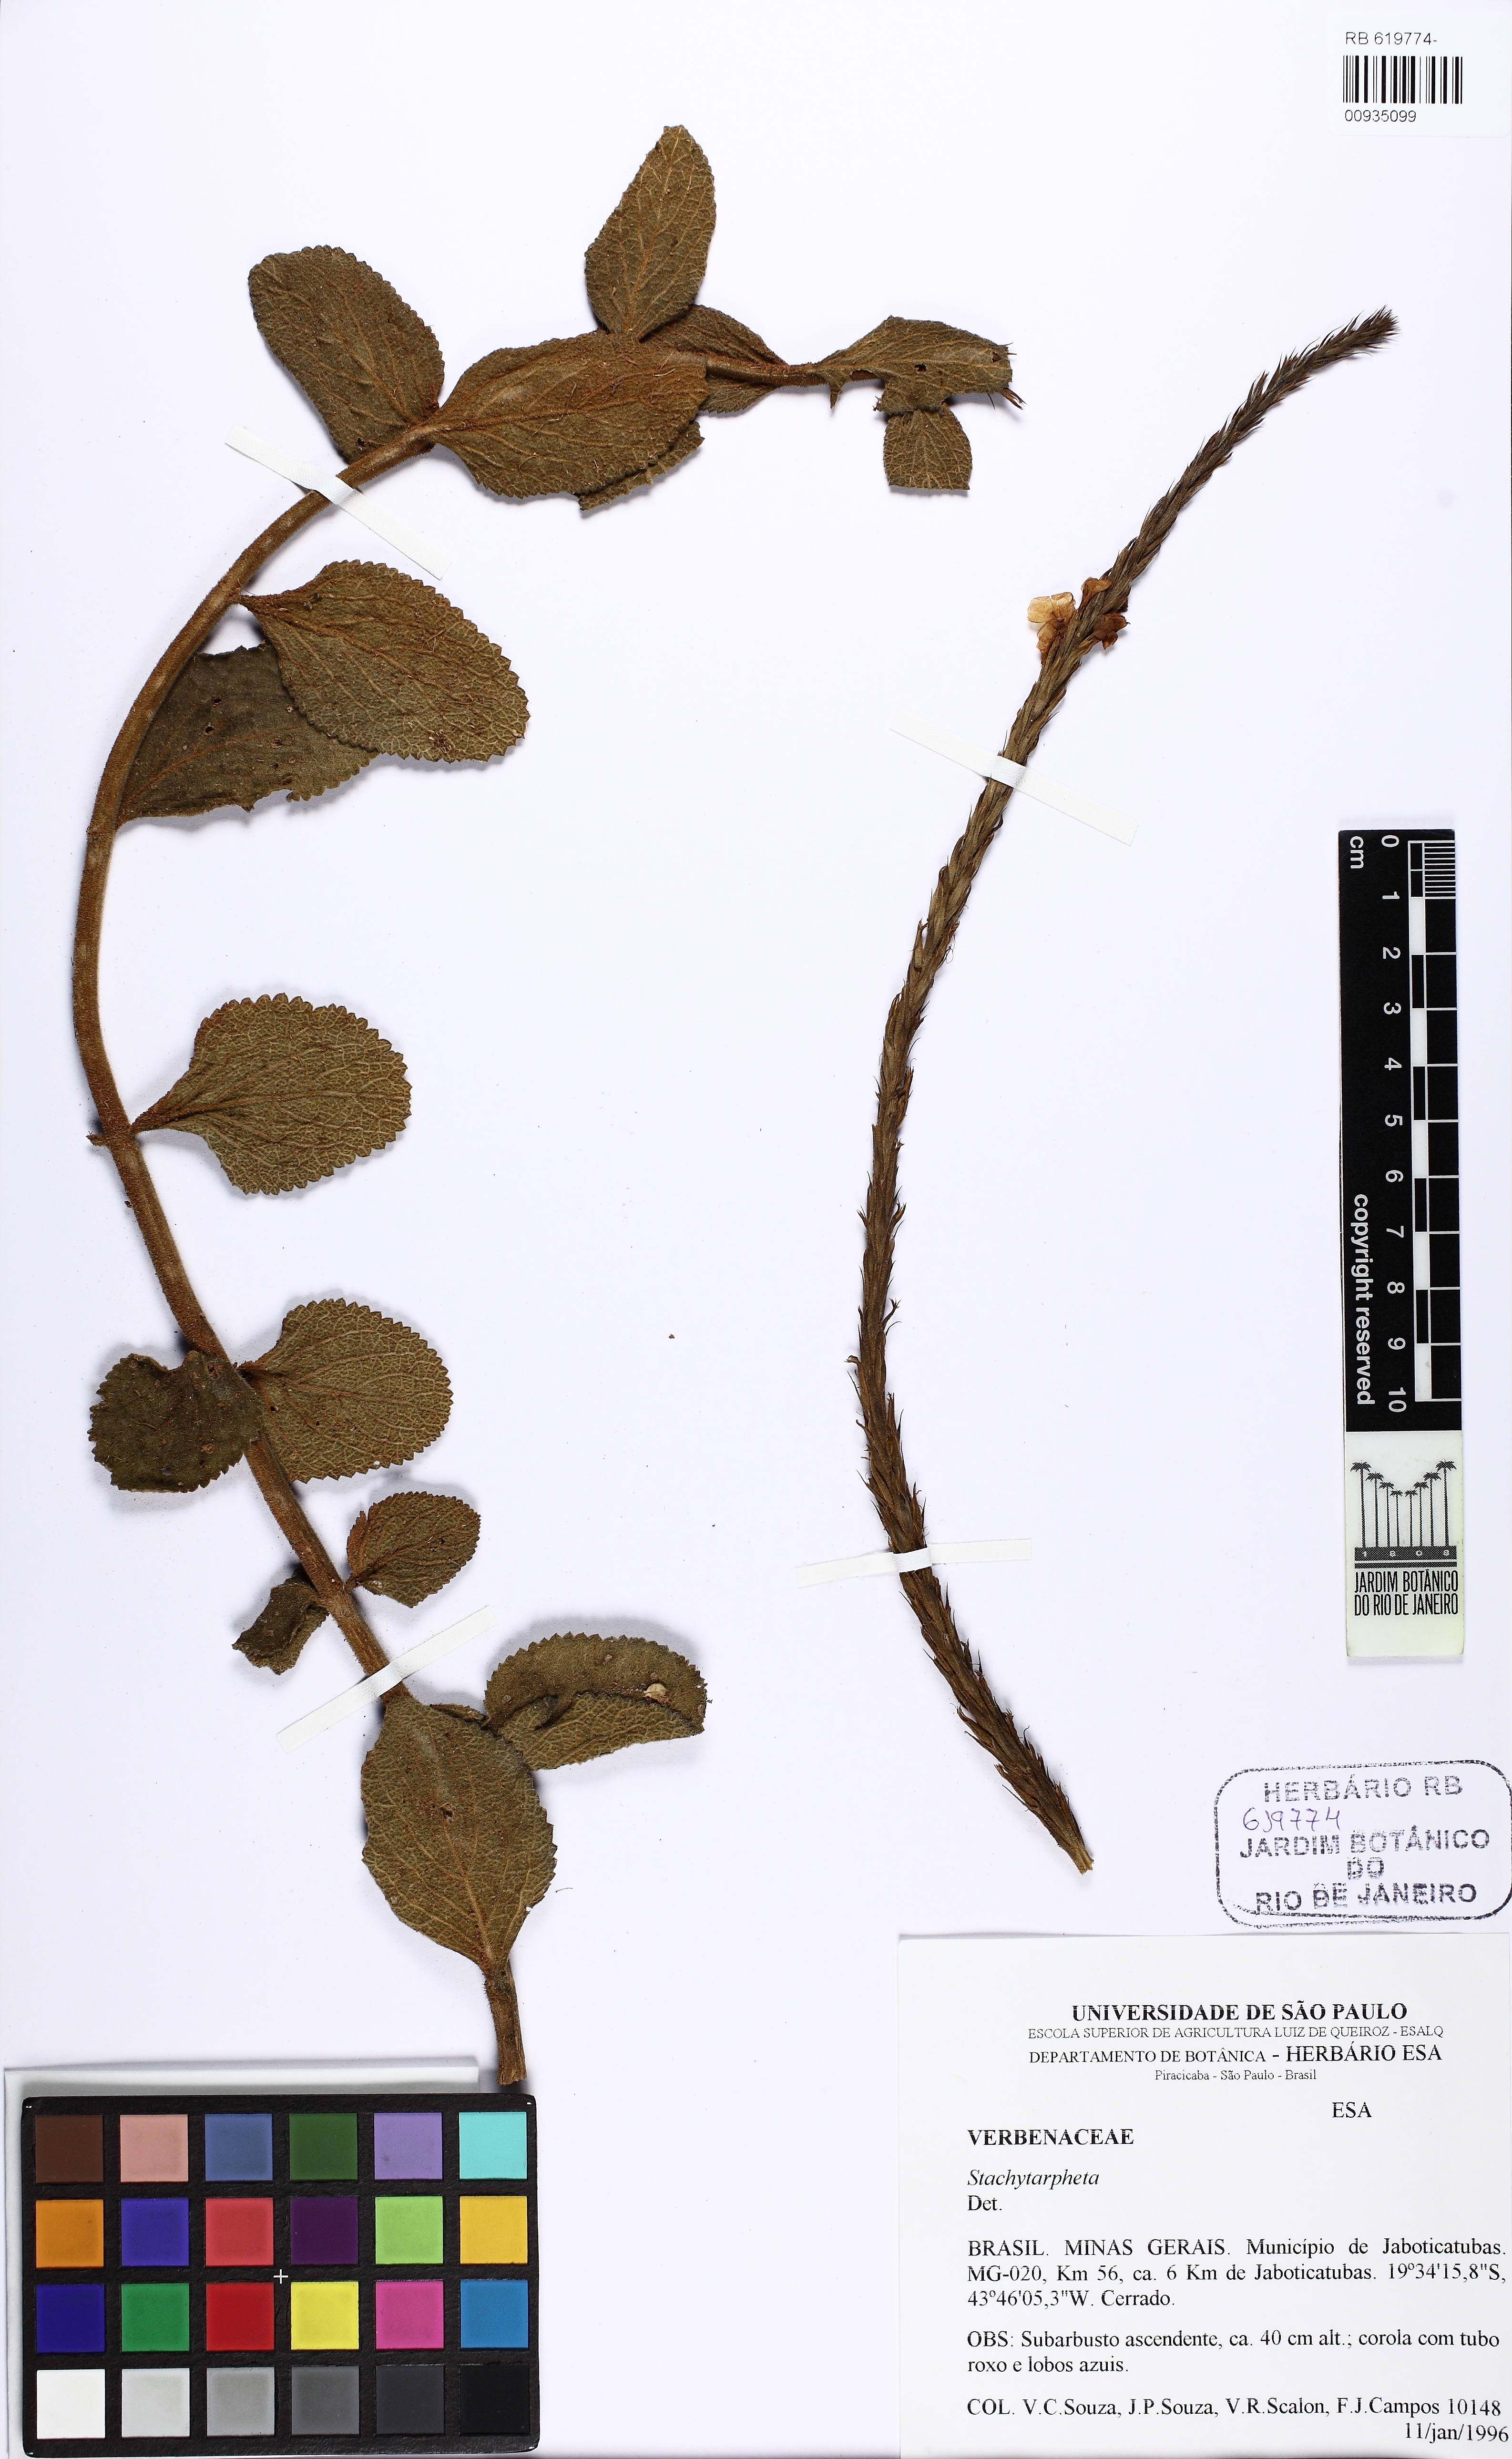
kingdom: Plantae
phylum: Tracheophyta
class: Magnoliopsida
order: Lamiales
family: Verbenaceae
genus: Stachytarpheta
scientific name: Stachytarpheta reticulata
